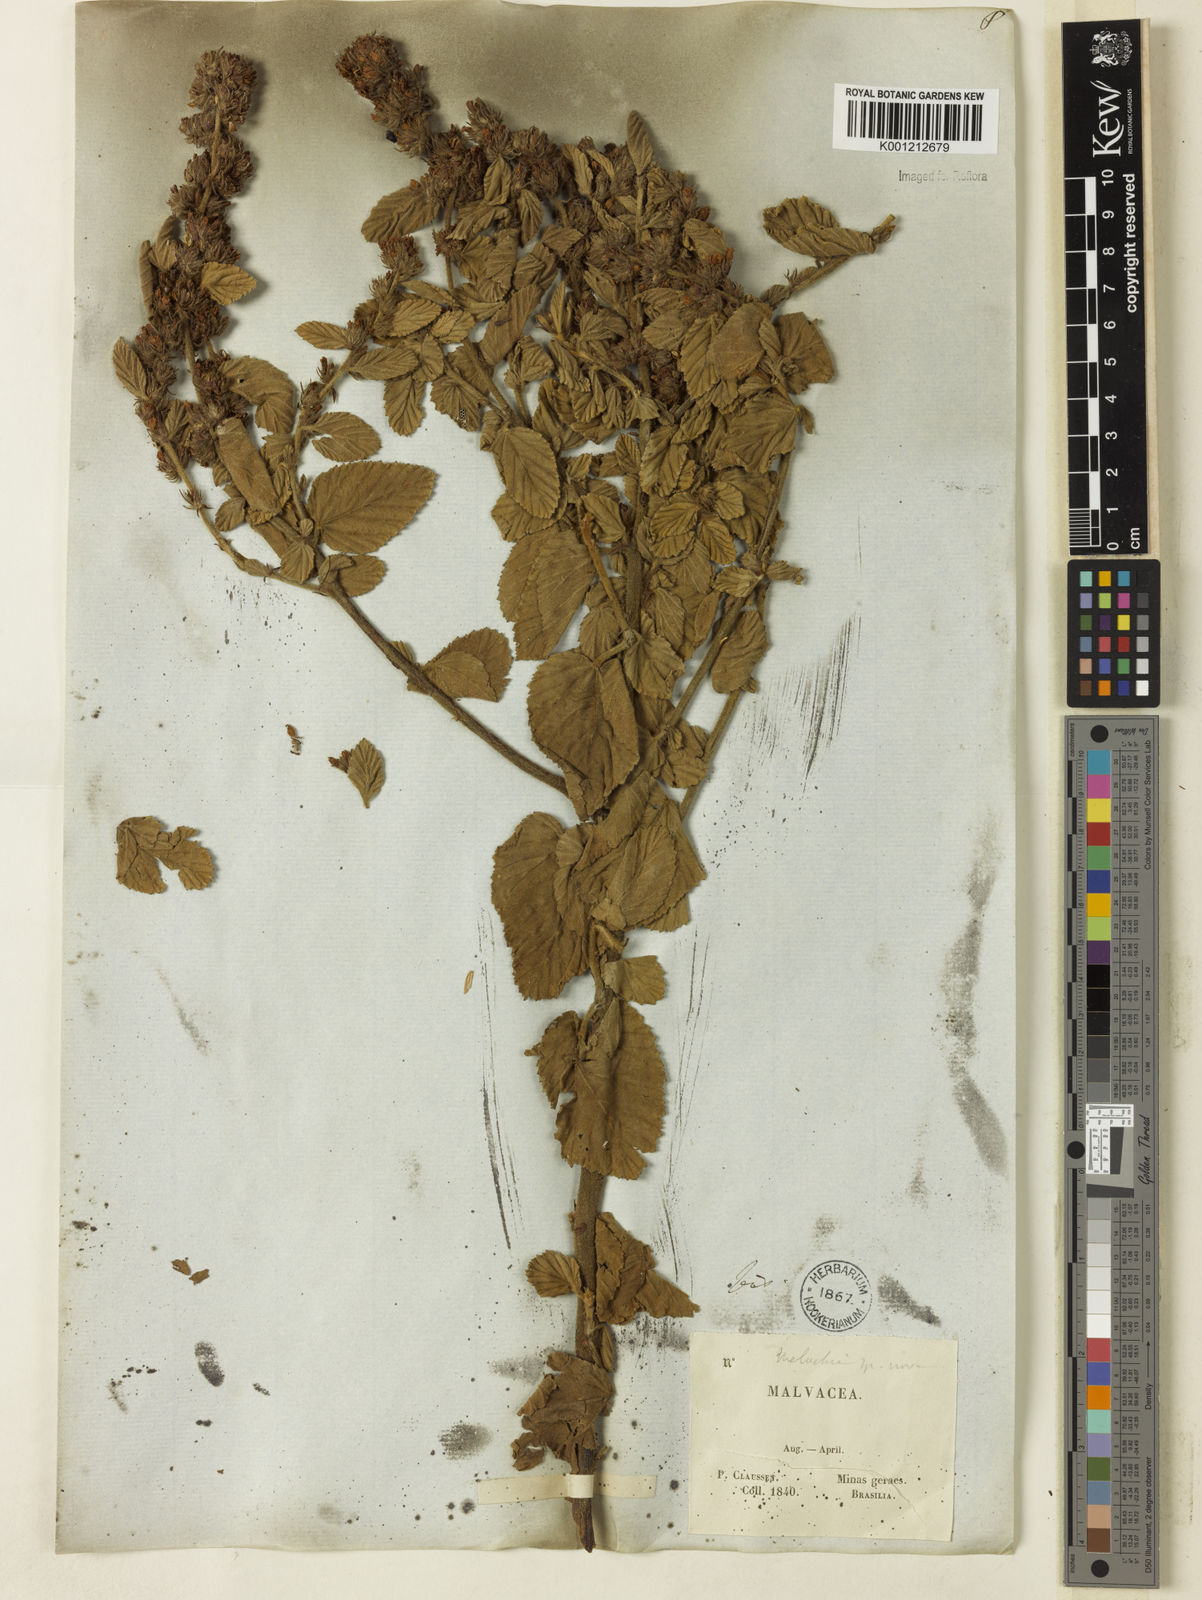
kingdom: Plantae
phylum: Tracheophyta
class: Magnoliopsida
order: Malvales
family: Malvaceae
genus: Melochia
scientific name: Melochia spicata
